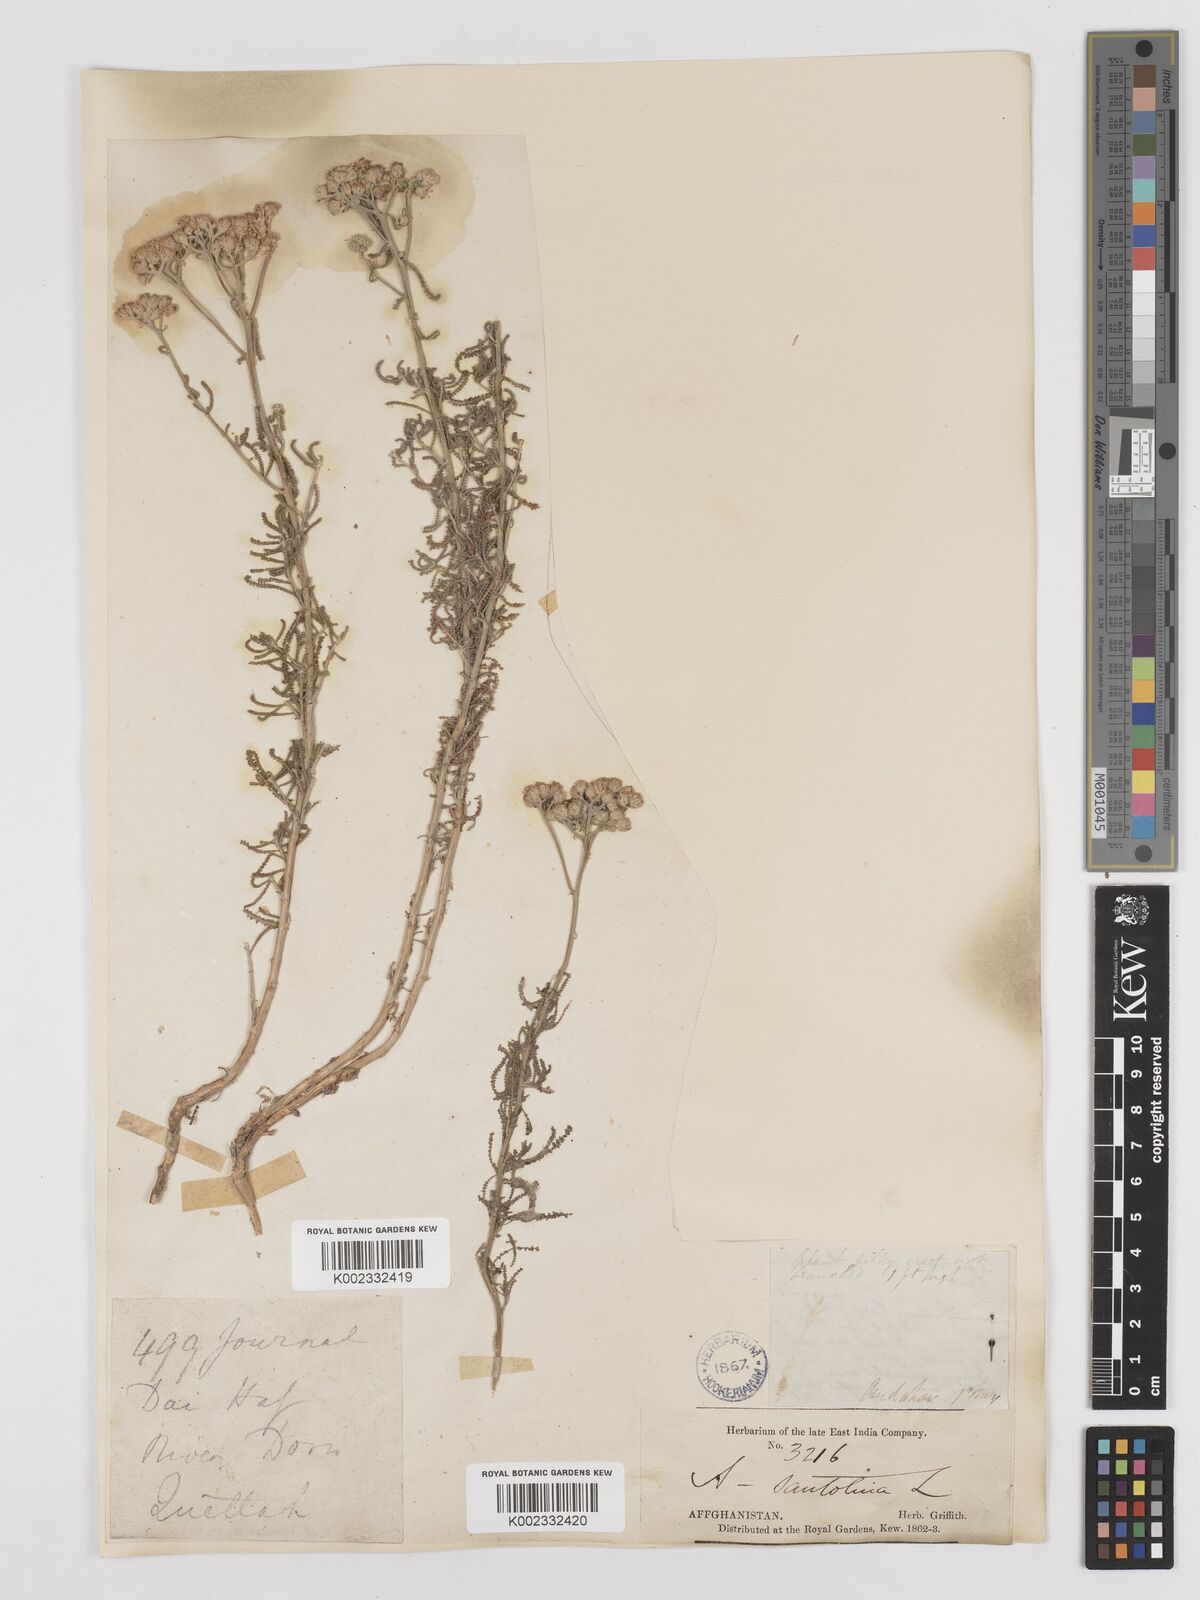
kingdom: Plantae
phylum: Tracheophyta
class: Magnoliopsida
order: Asterales
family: Asteraceae
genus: Achillea
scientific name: Achillea tenuifolia
